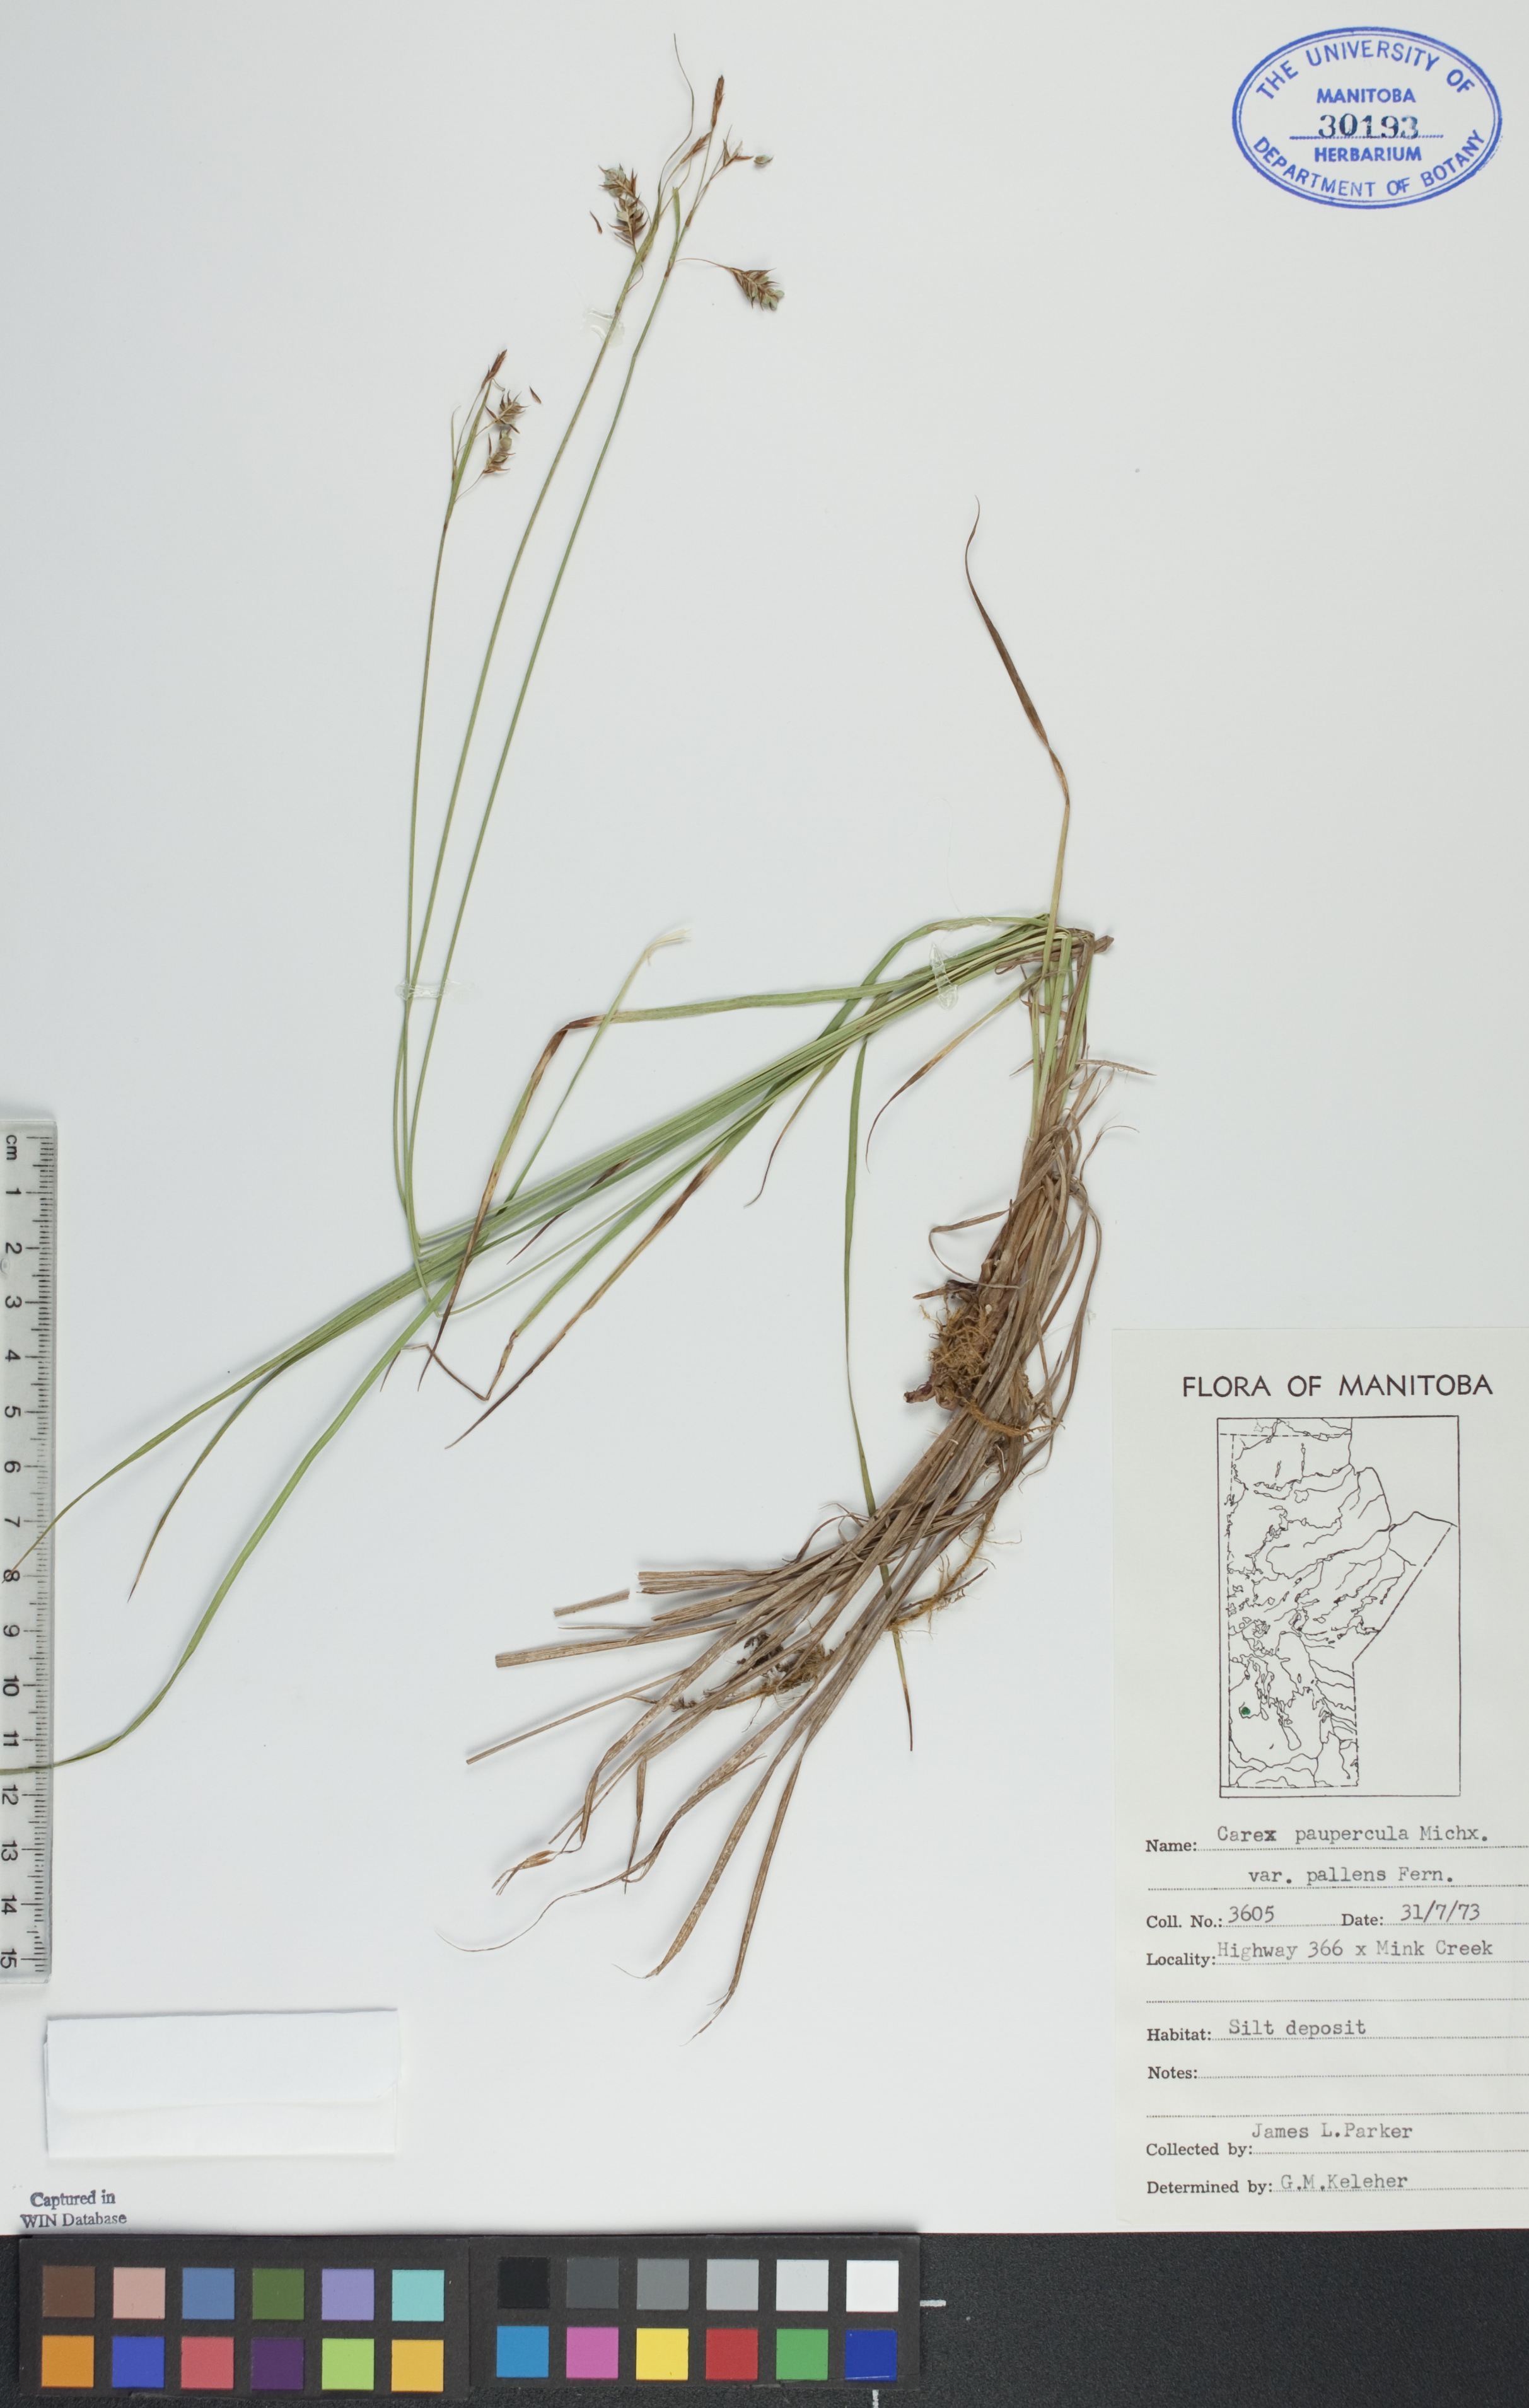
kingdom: Plantae
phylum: Tracheophyta
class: Liliopsida
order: Poales
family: Cyperaceae
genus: Carex
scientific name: Carex magellanica
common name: Bog sedge
